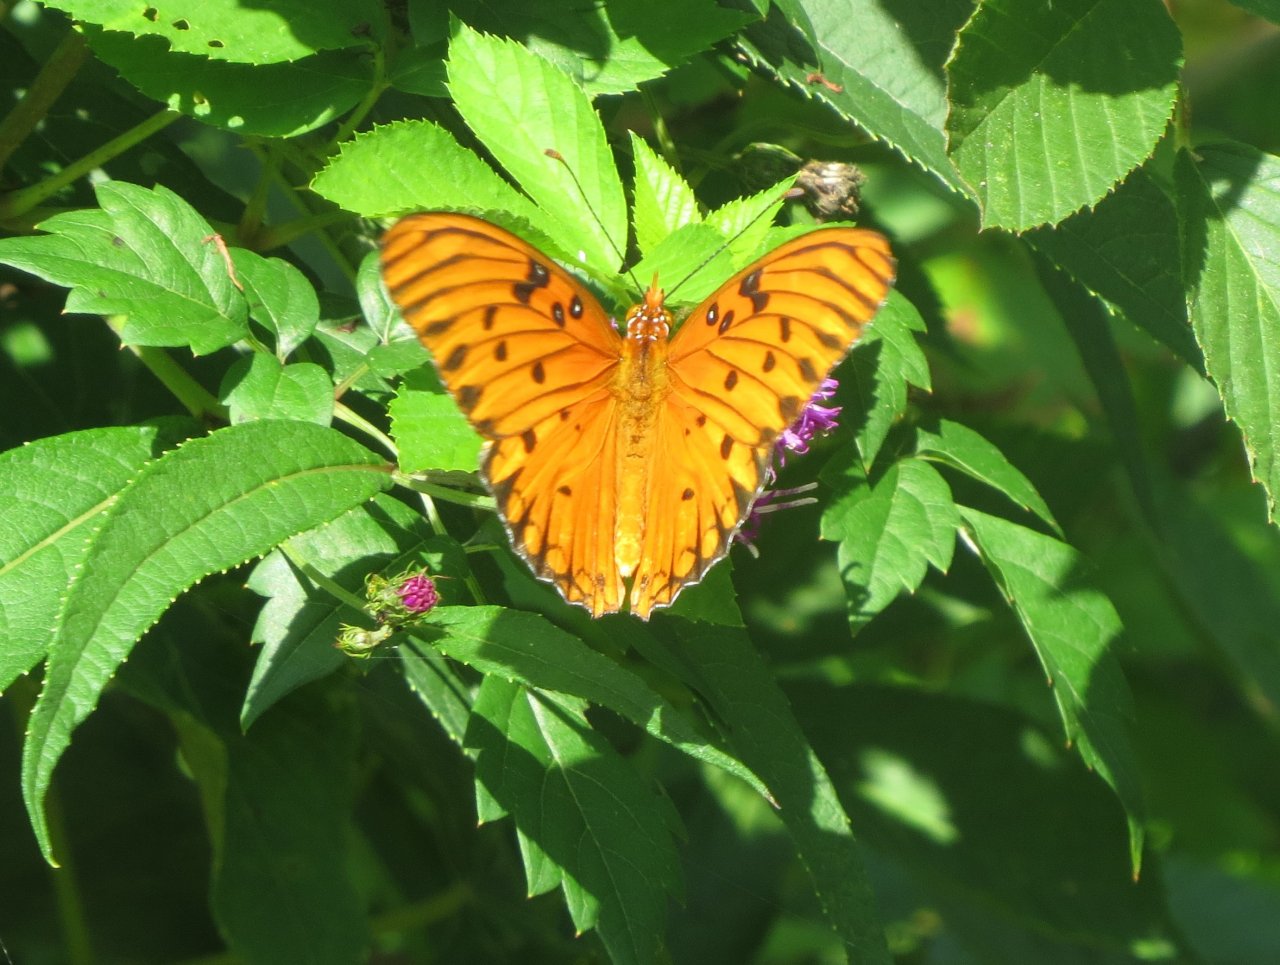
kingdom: Animalia
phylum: Arthropoda
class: Insecta
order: Lepidoptera
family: Nymphalidae
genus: Dione
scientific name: Dione vanillae
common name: Gulf Fritillary
